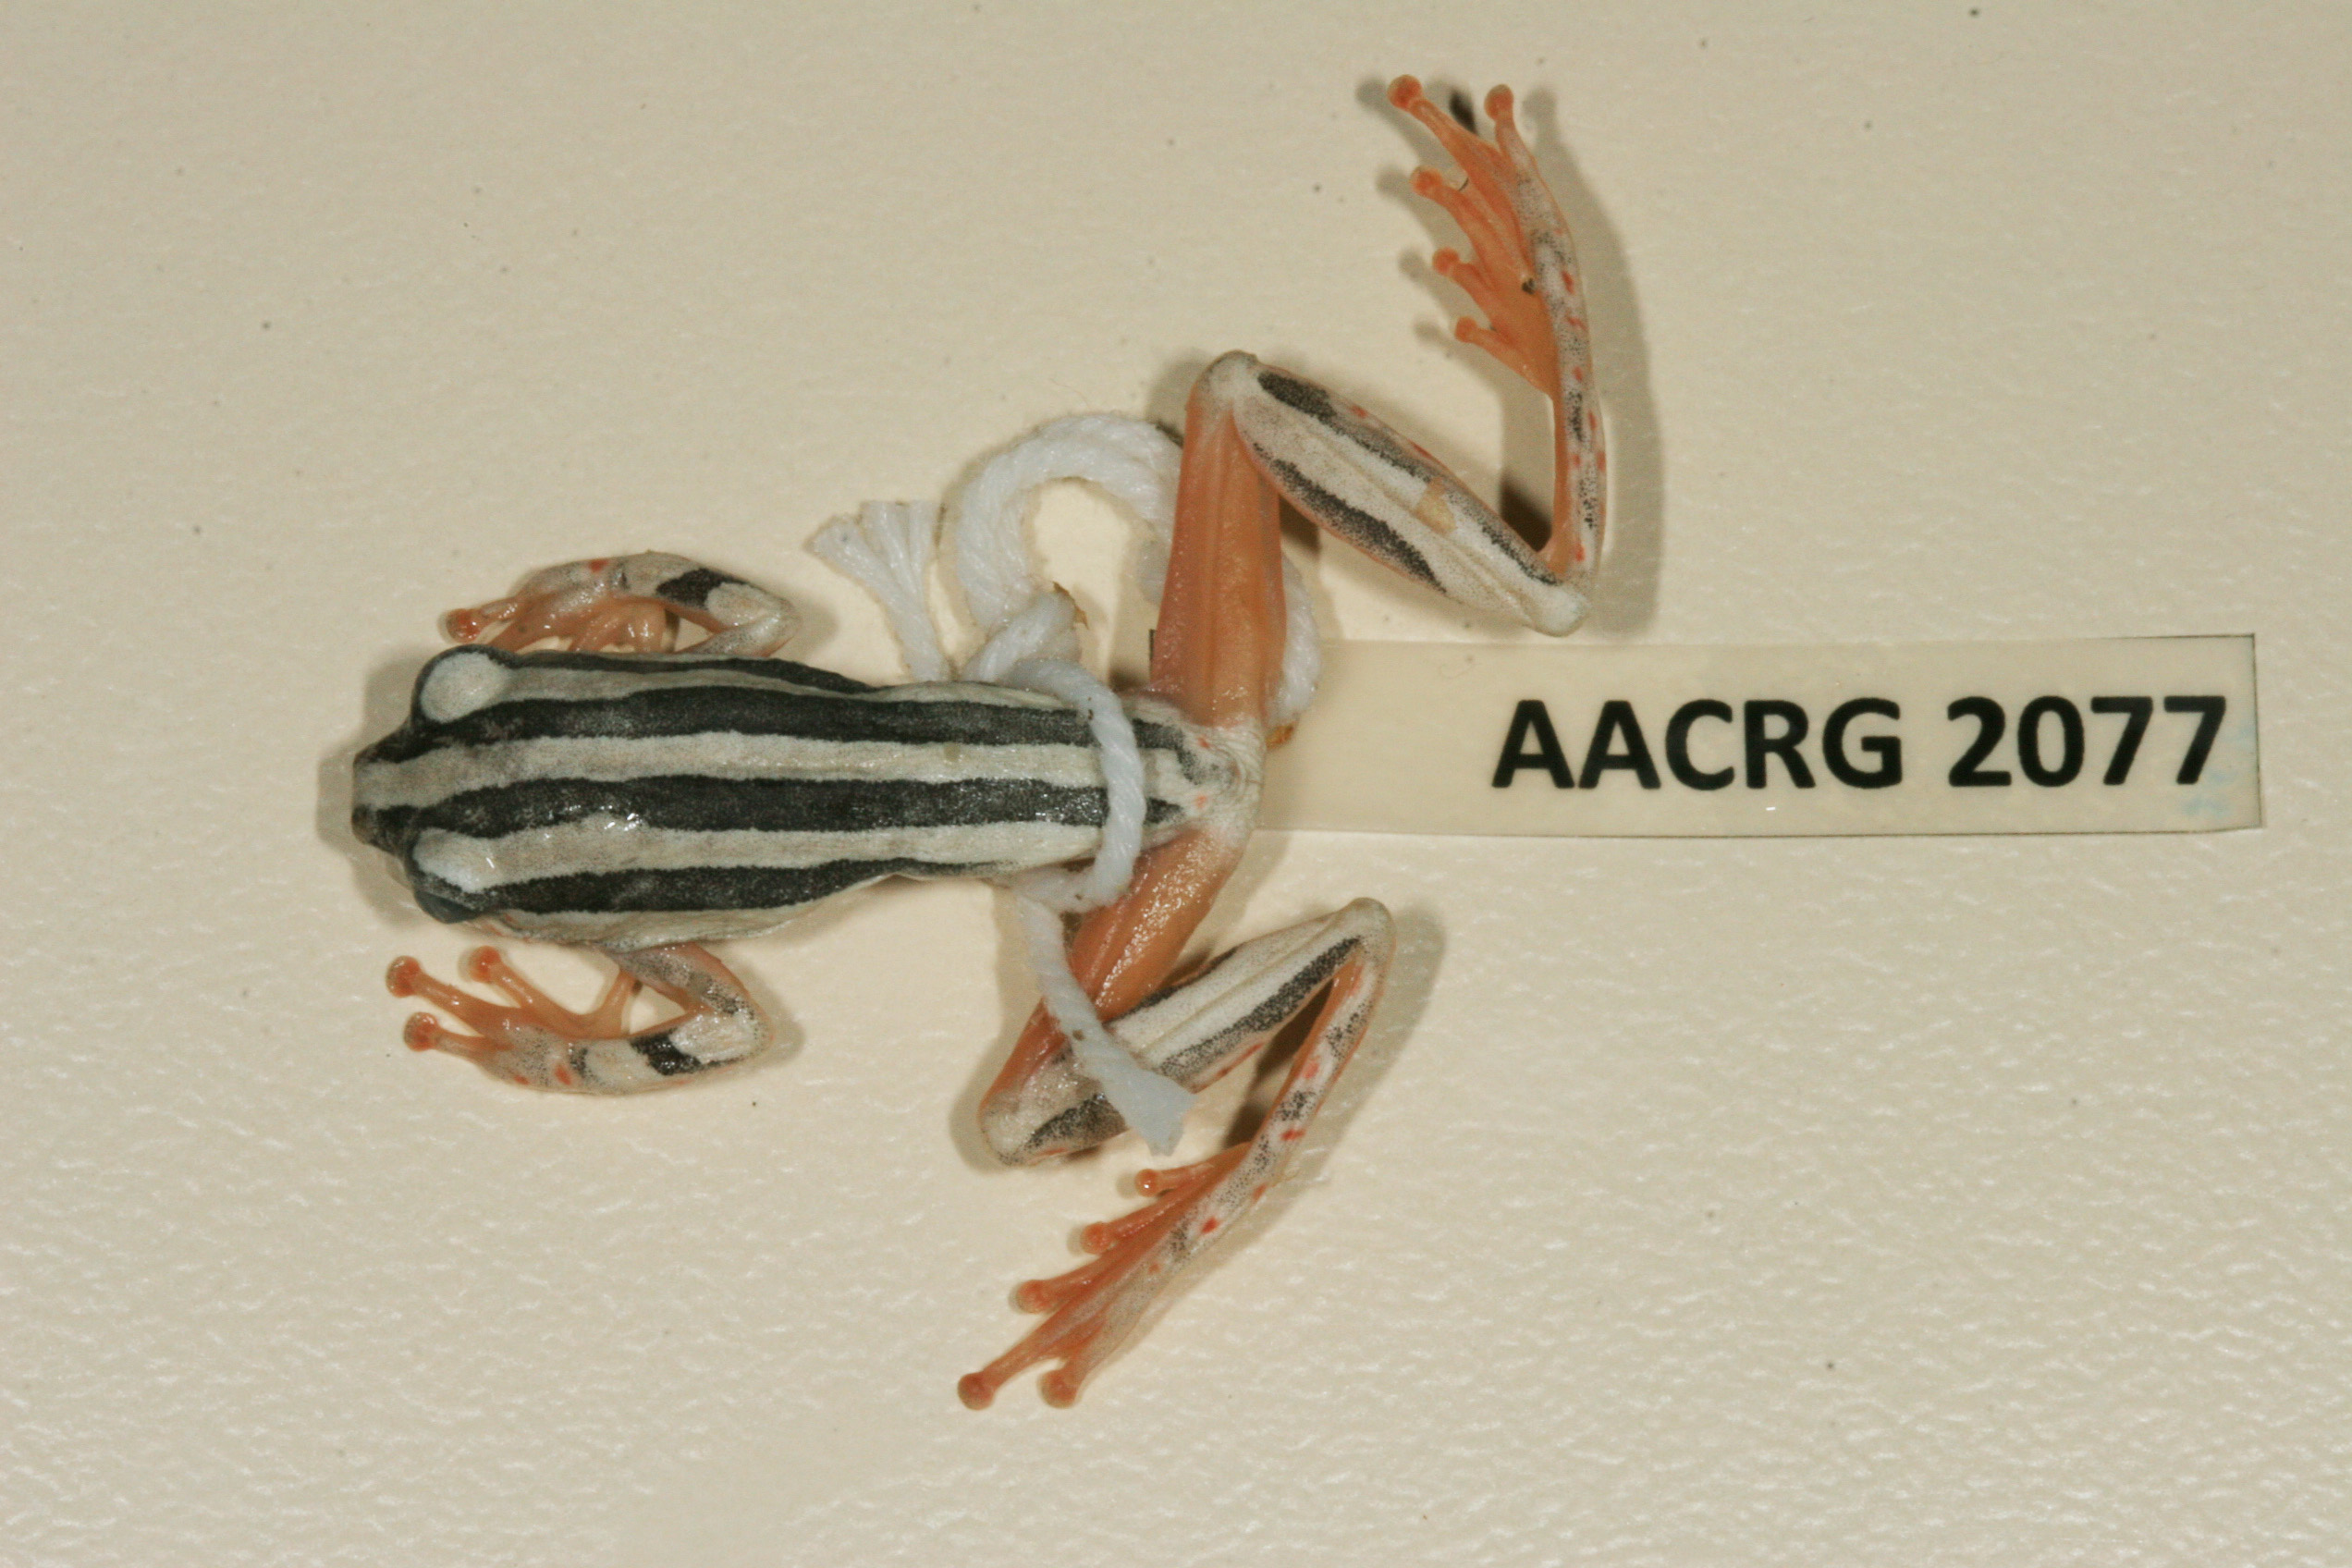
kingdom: Animalia
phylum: Chordata
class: Amphibia
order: Anura
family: Hyperoliidae
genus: Hyperolius
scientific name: Hyperolius marmoratus
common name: Painted reed frog
